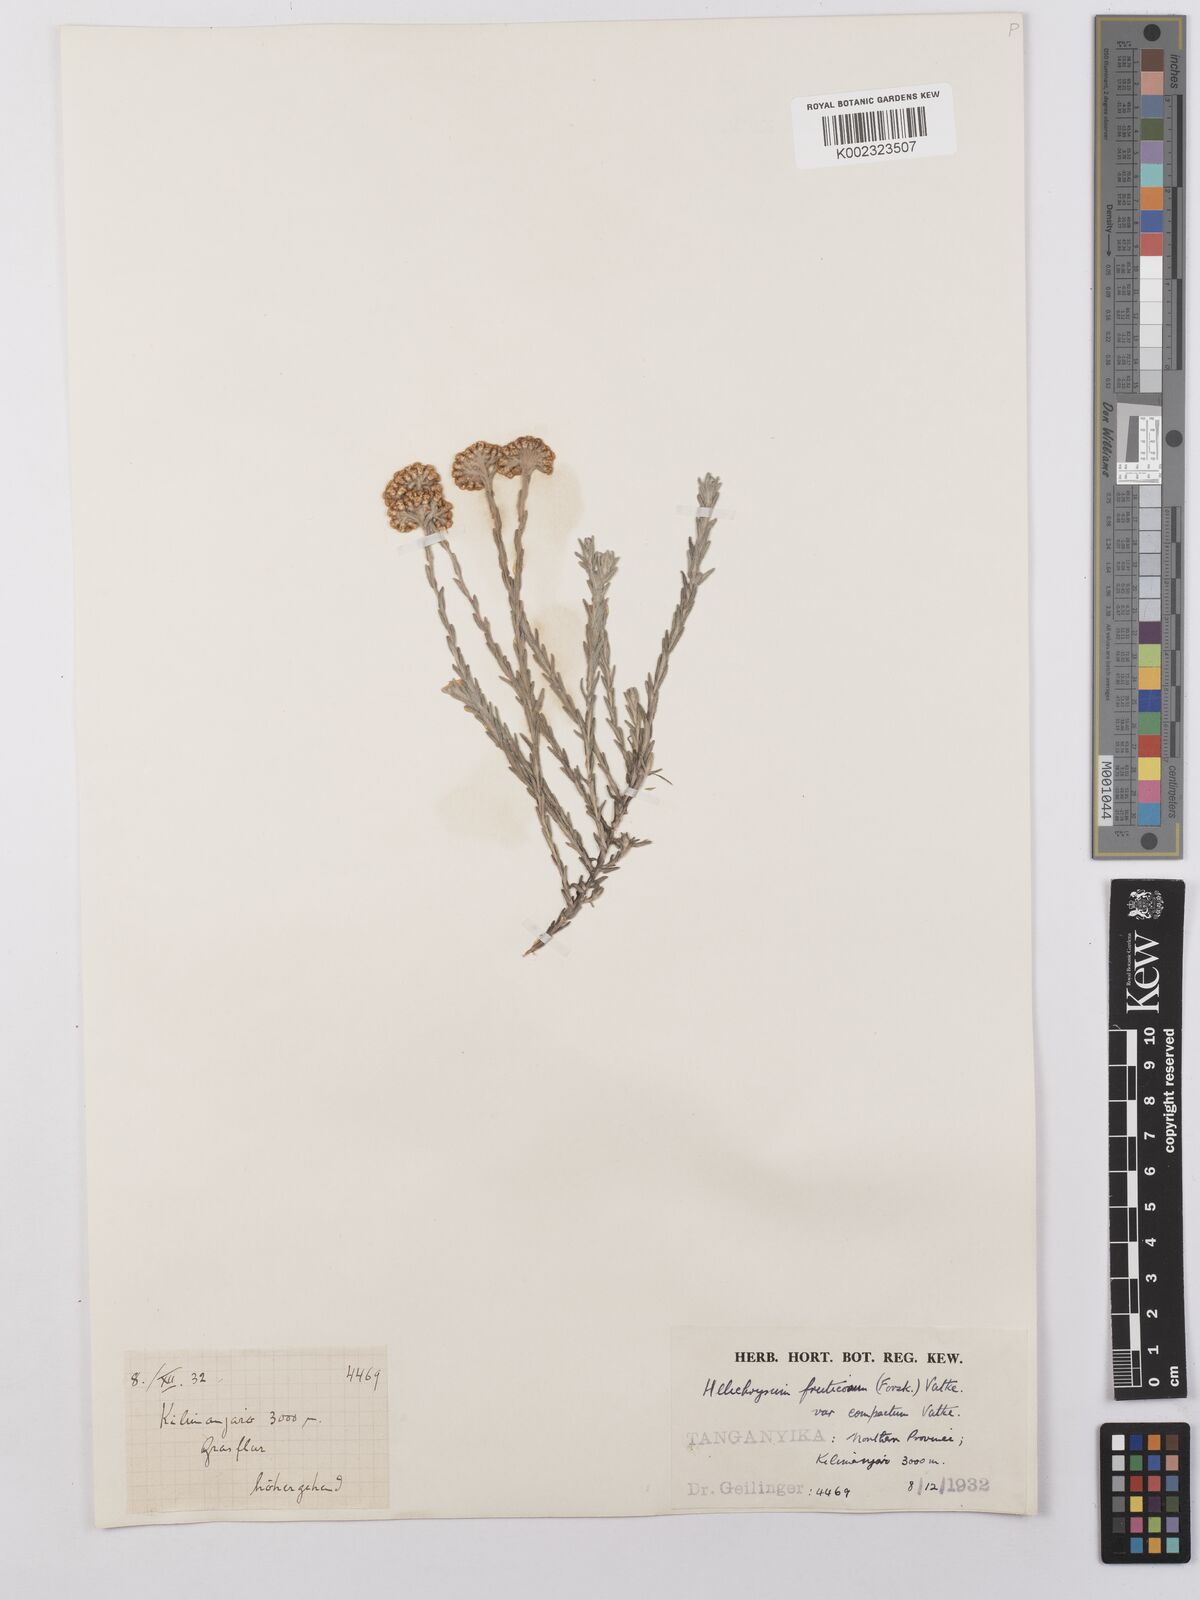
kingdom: Plantae
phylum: Tracheophyta
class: Magnoliopsida
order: Asterales
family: Asteraceae
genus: Helichrysum
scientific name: Helichrysum forskahlii
